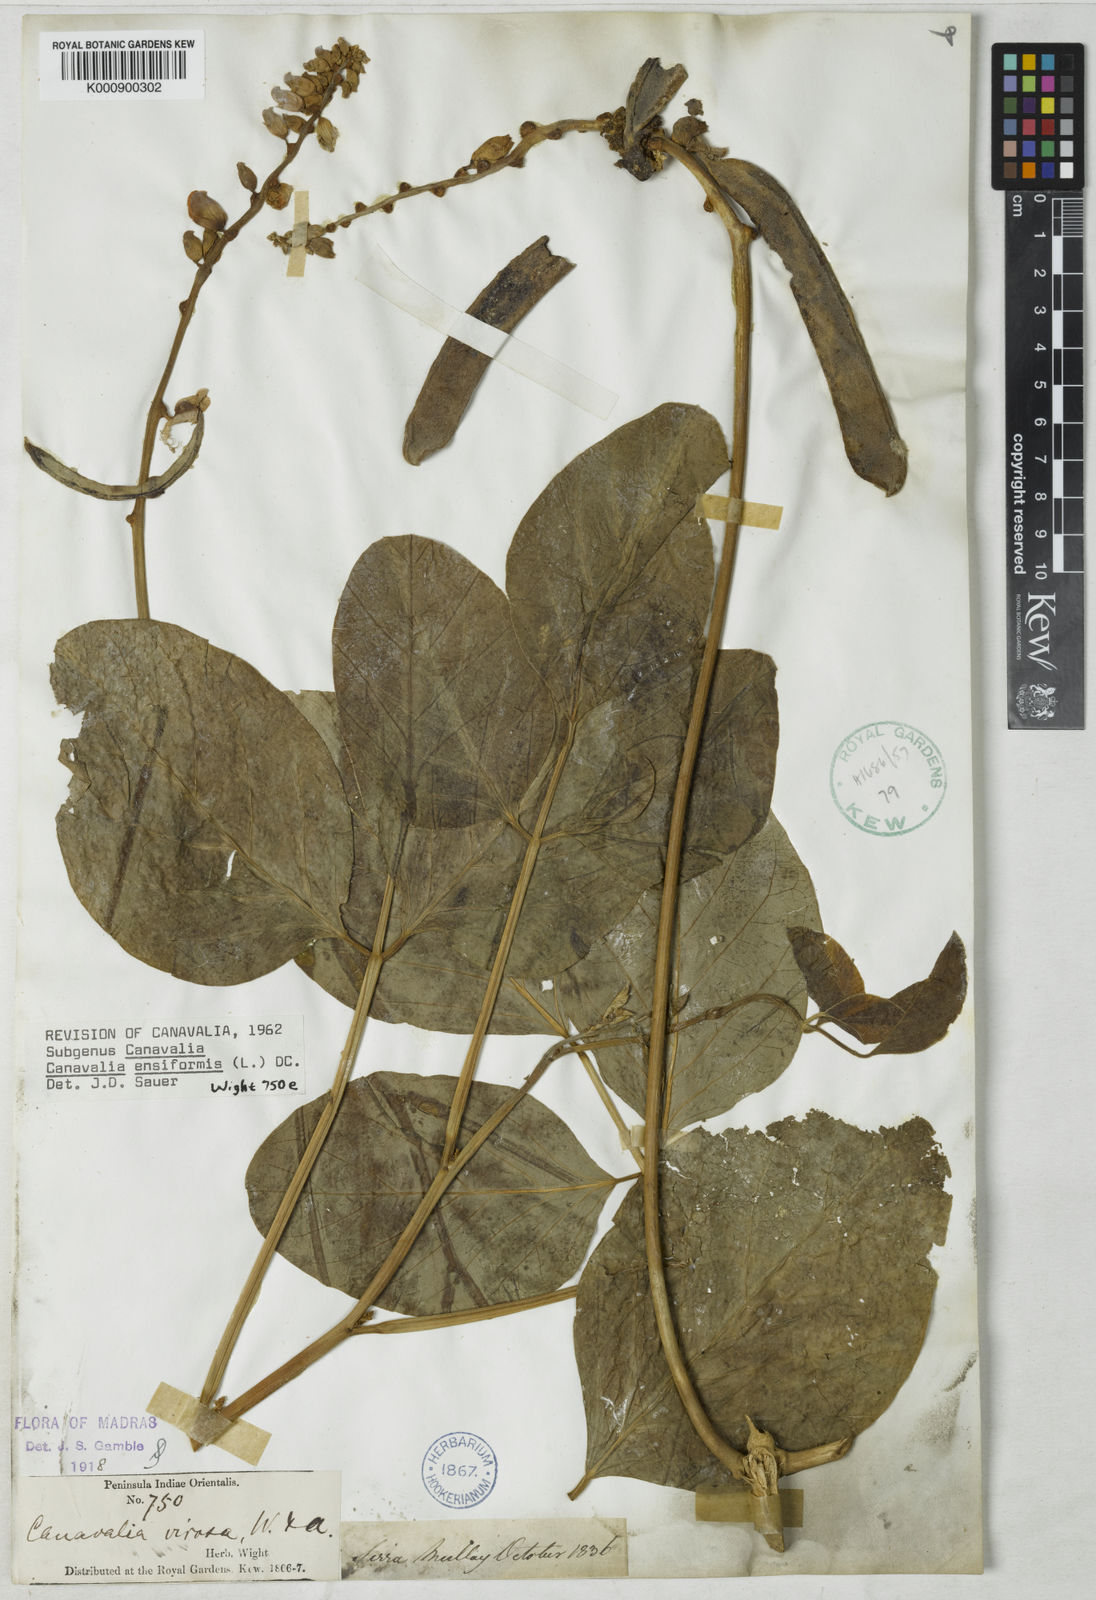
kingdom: Plantae
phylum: Tracheophyta
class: Magnoliopsida
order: Fabales
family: Fabaceae
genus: Canavalia
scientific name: Canavalia ensiformis
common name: Jack bean
